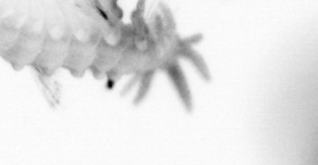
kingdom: Animalia
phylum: Annelida
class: Polychaeta
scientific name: Polychaeta
